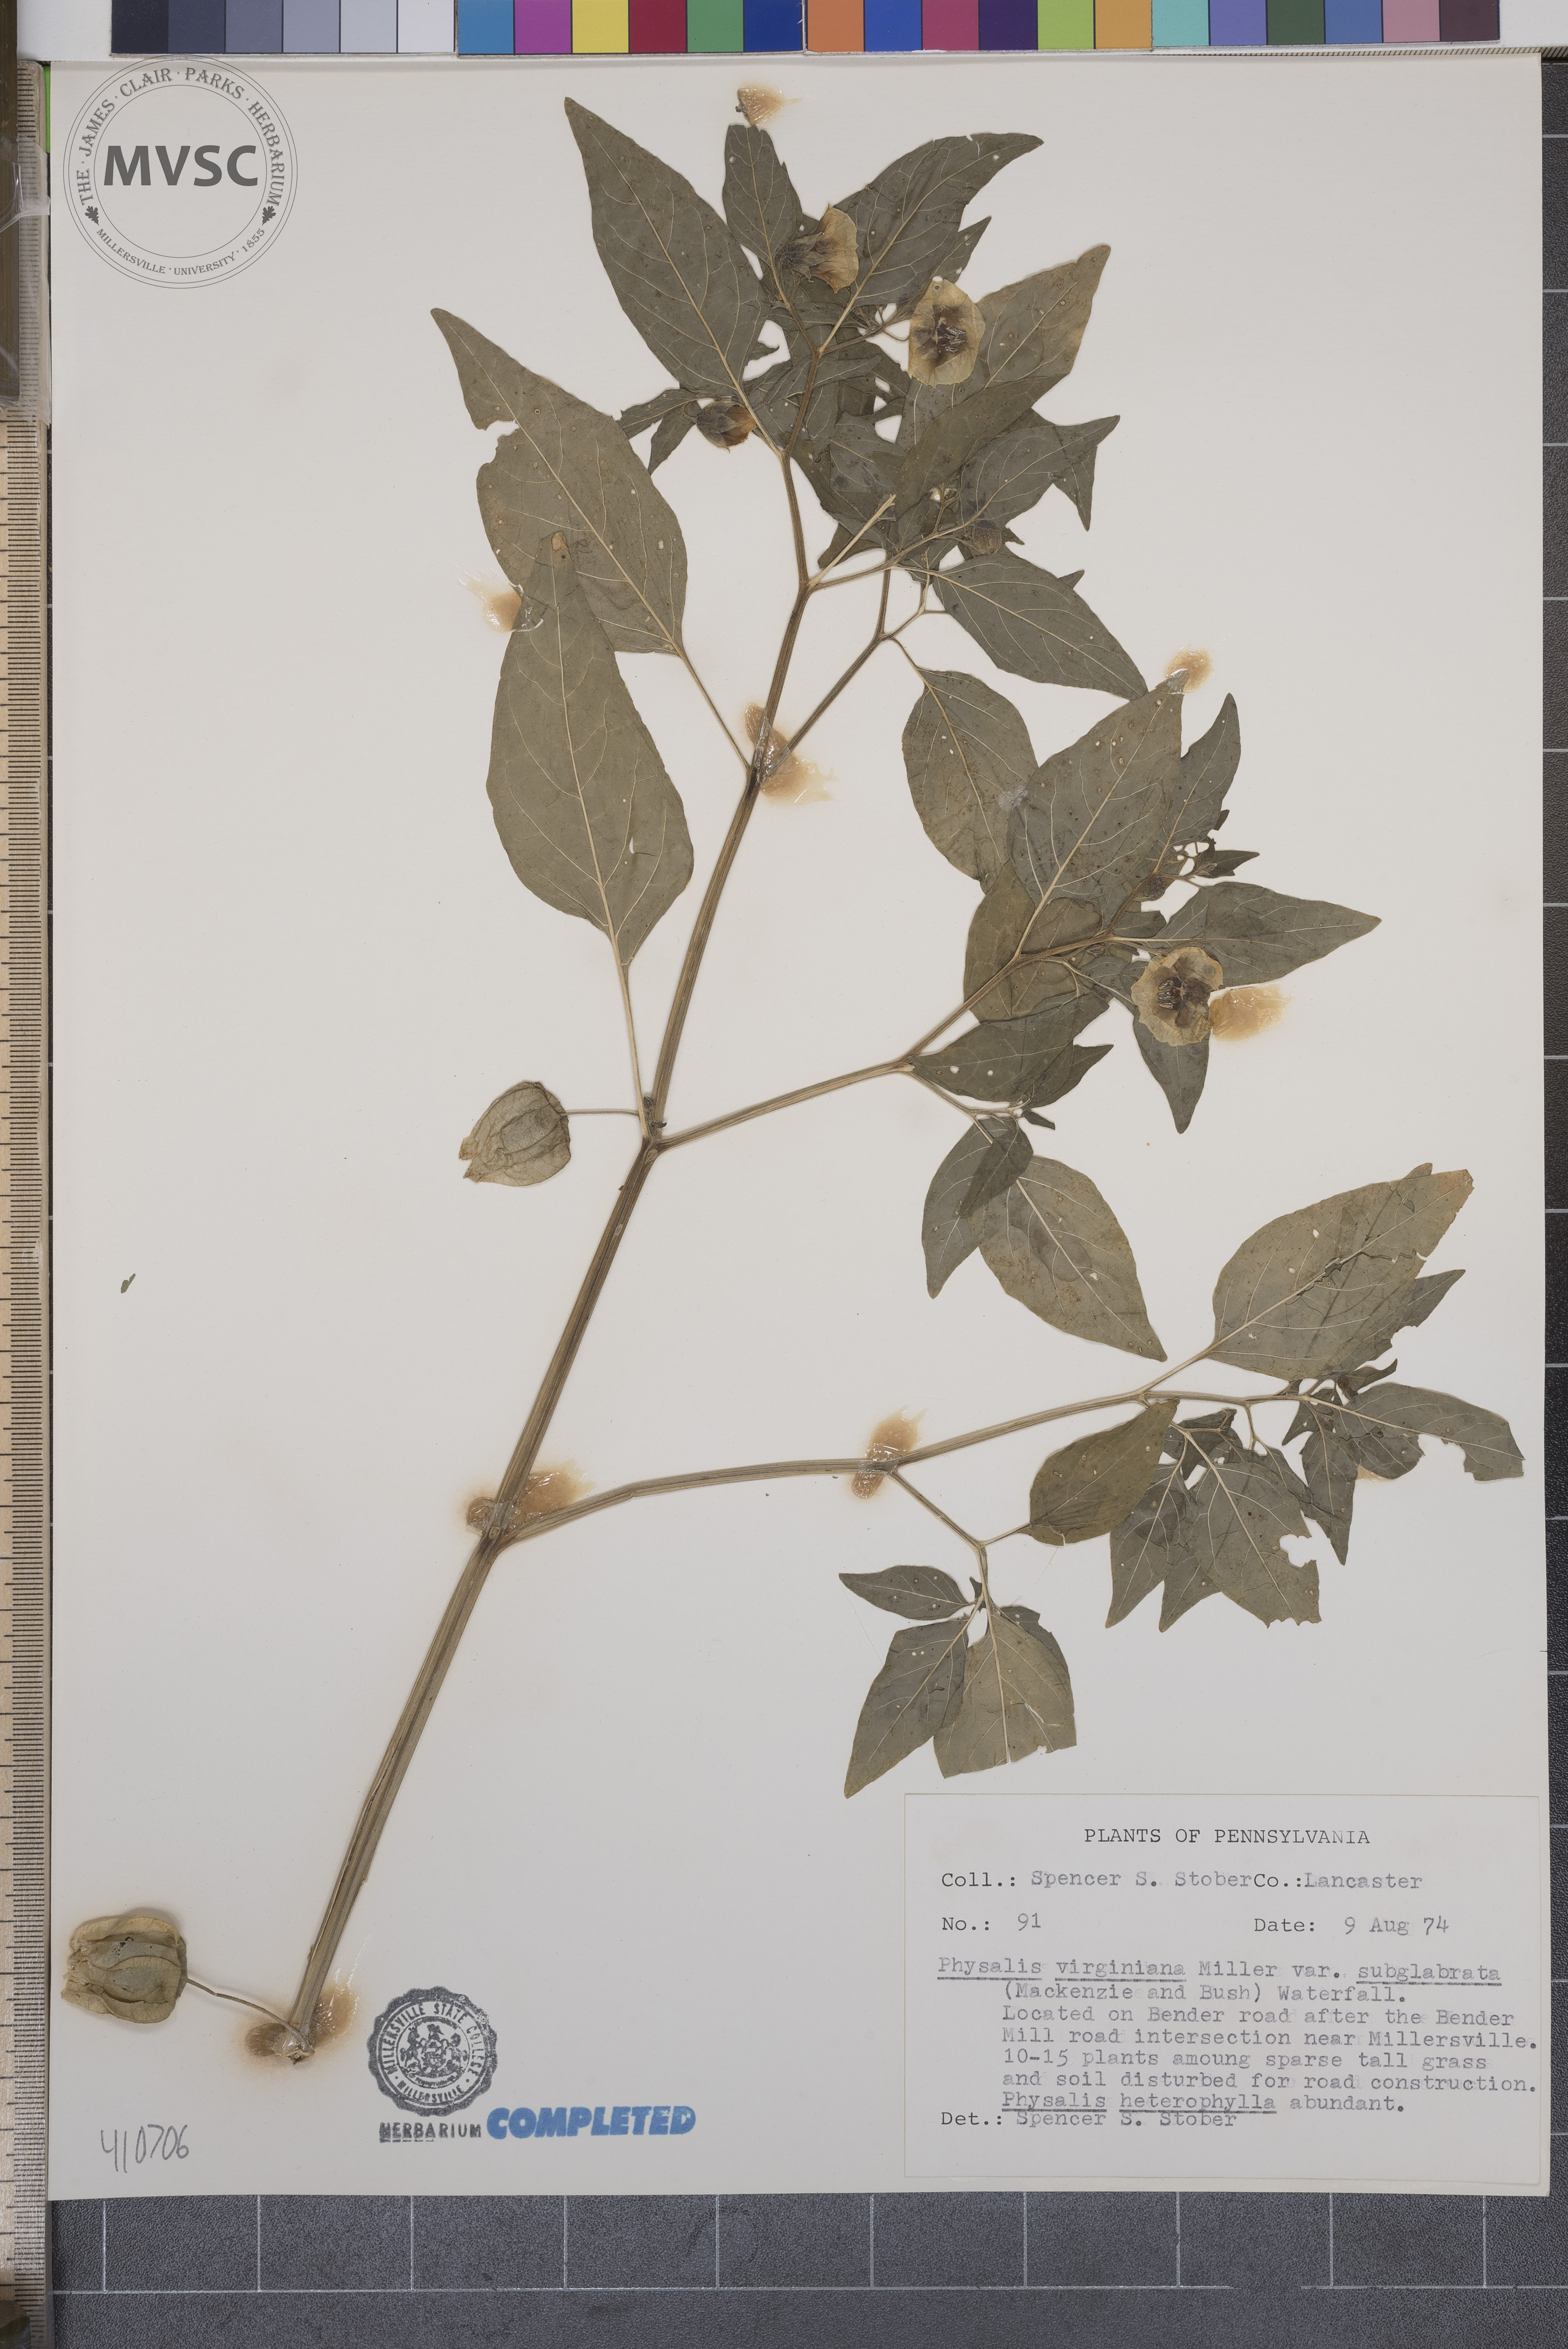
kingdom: Plantae
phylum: Tracheophyta
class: Magnoliopsida
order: Solanales
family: Solanaceae
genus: Physalis
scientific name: Physalis virginiana
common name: Virginia ground-cherry
